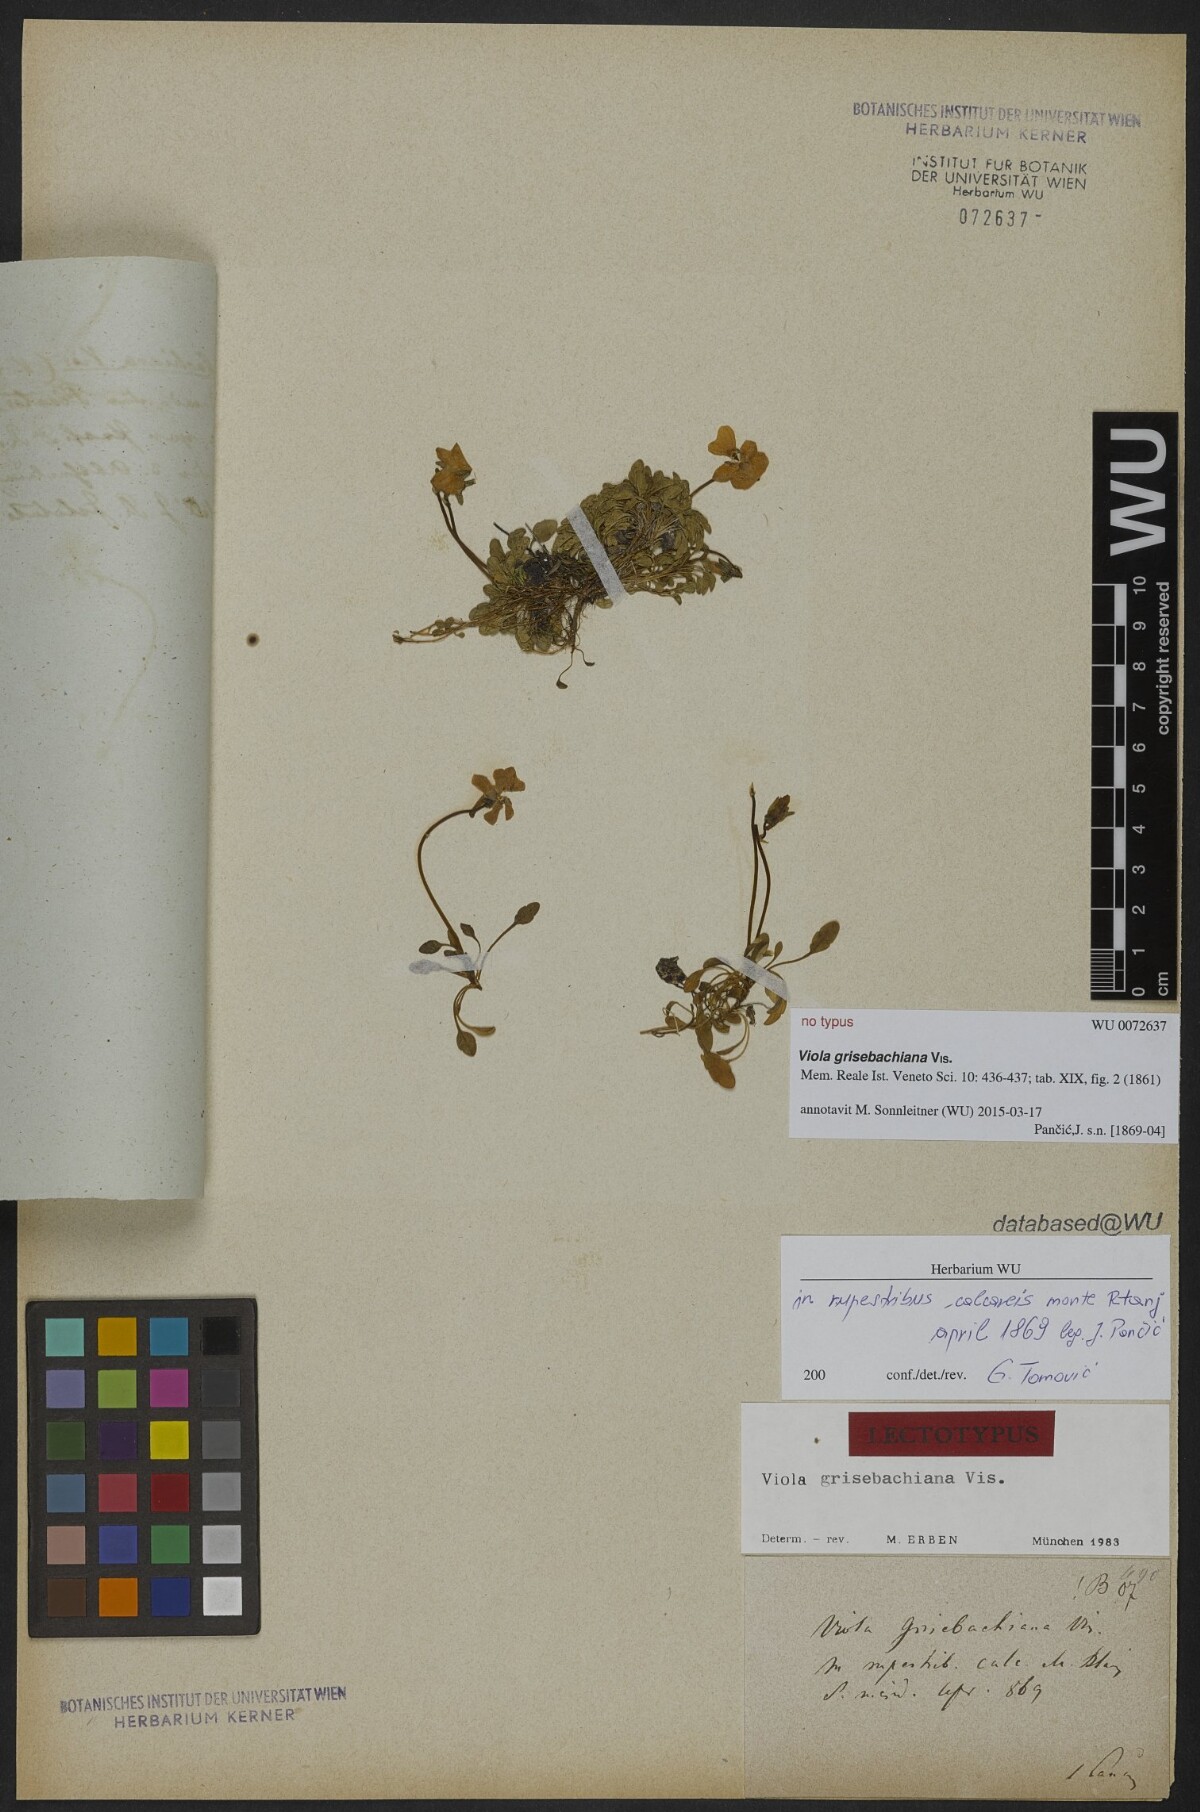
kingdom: Plantae
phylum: Tracheophyta
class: Magnoliopsida
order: Malpighiales
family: Violaceae
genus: Viola
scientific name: Viola grisebachiana
